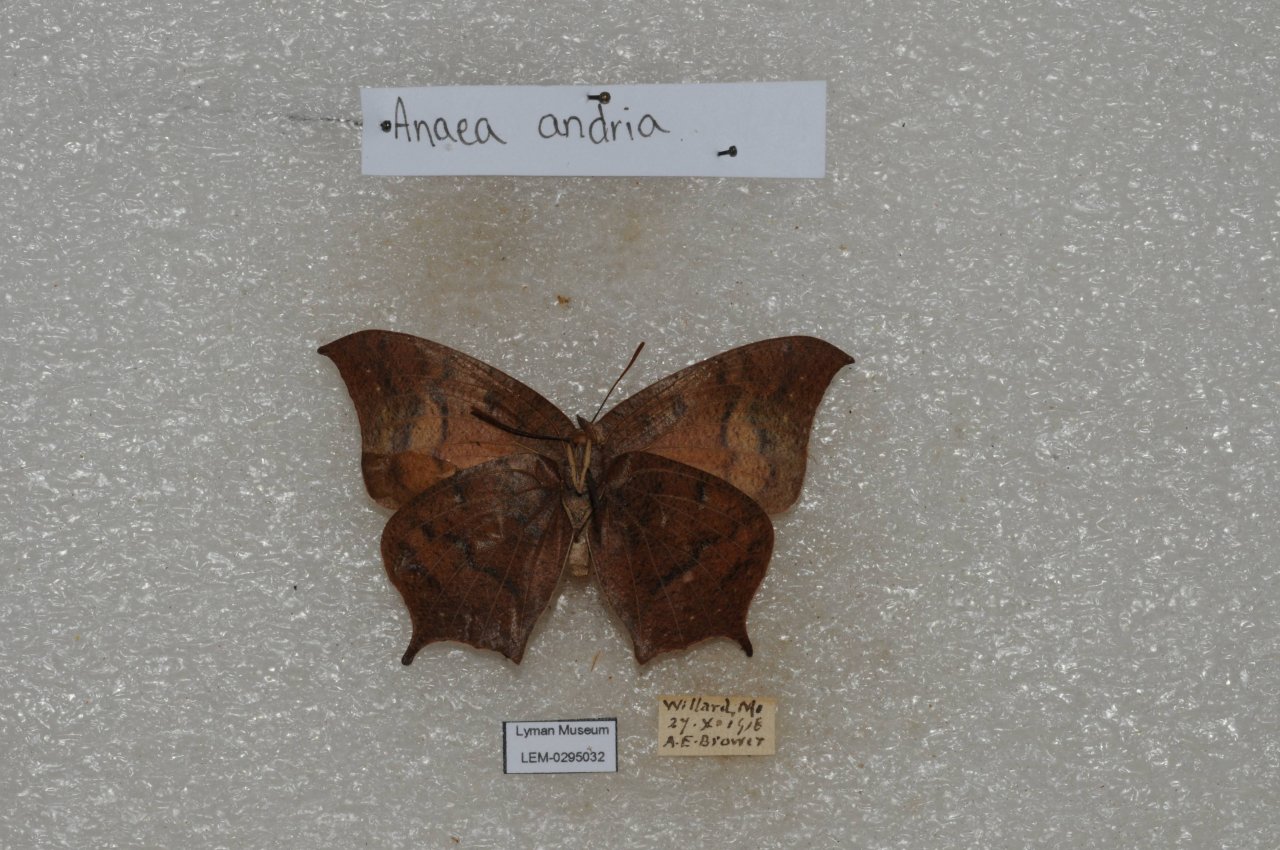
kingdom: Animalia
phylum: Arthropoda
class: Insecta
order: Lepidoptera
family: Nymphalidae
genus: Anaea
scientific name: Anaea andria
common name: Goatweed Leafwing
